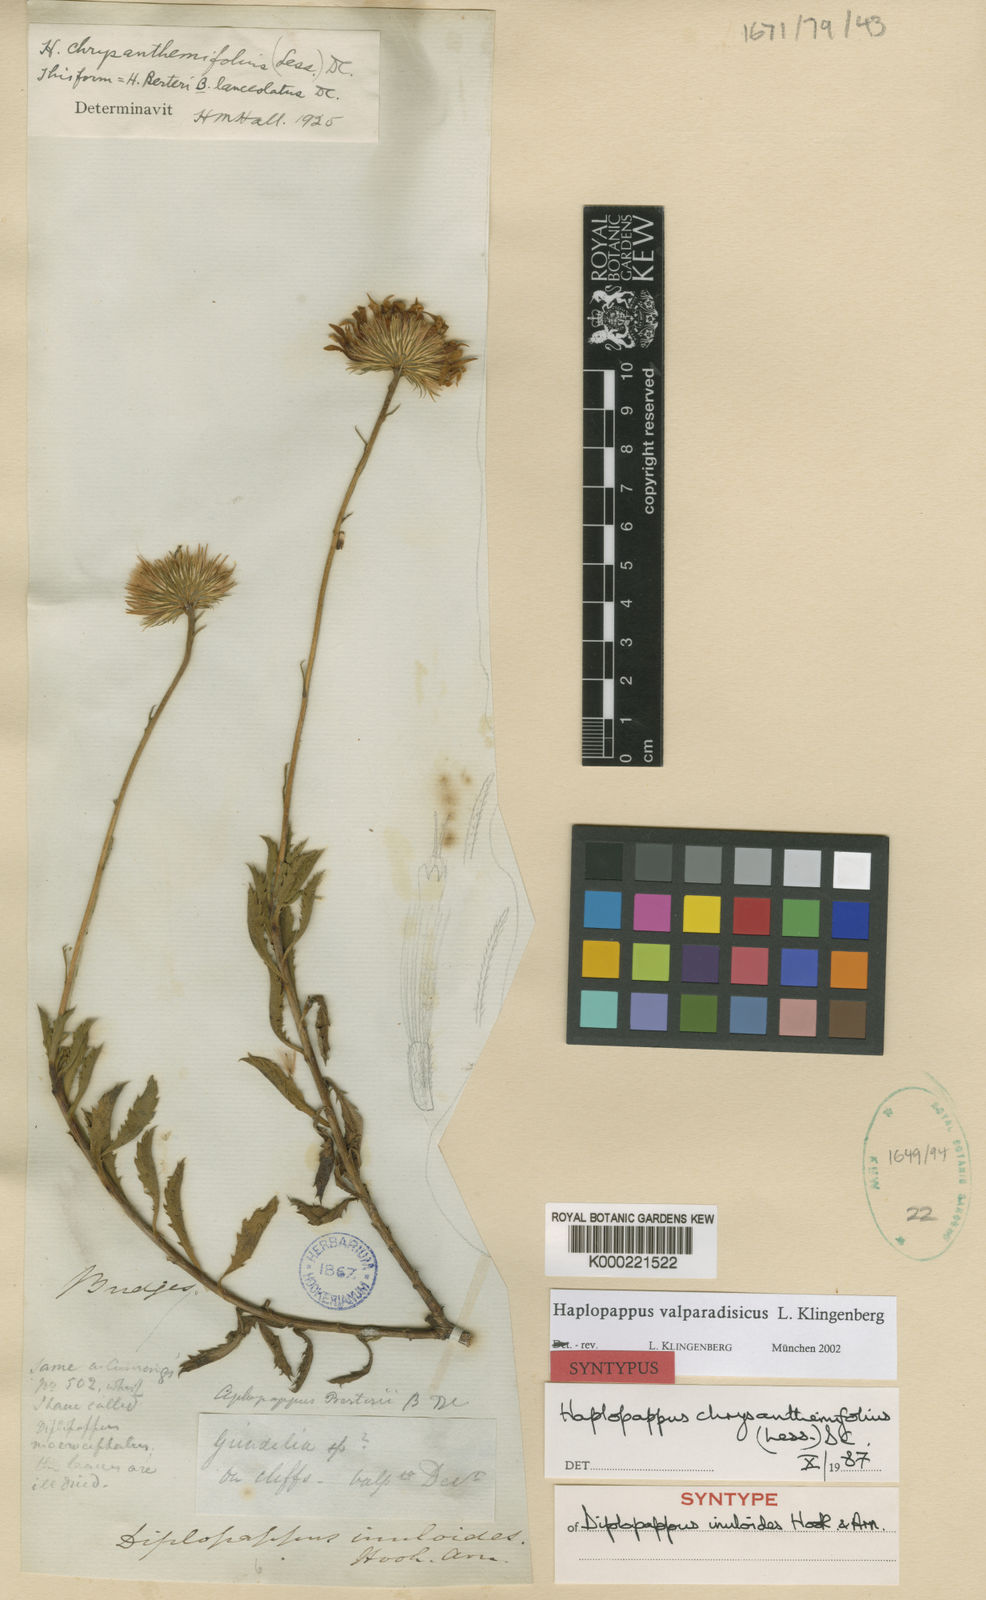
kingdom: Plantae
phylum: Tracheophyta
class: Magnoliopsida
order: Asterales
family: Asteraceae
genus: Haplopappus
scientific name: Haplopappus
